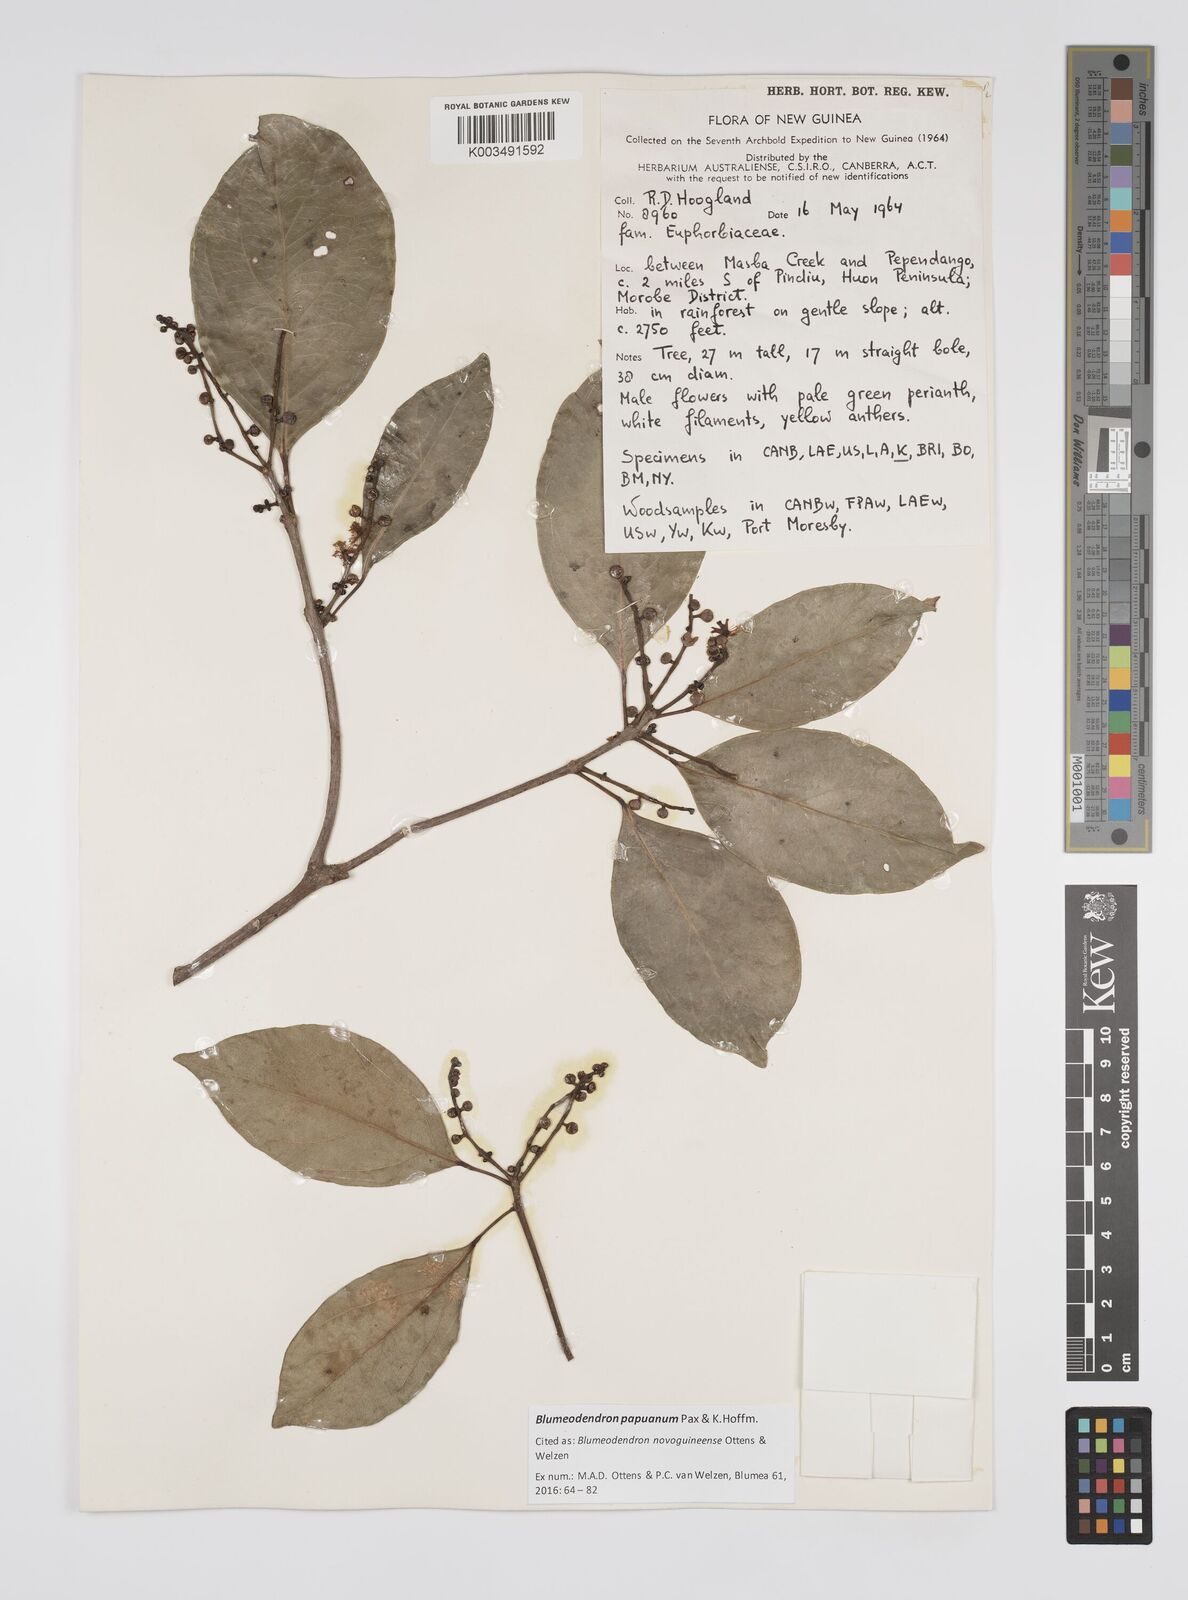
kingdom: Plantae
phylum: Tracheophyta
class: Magnoliopsida
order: Malpighiales
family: Euphorbiaceae
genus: Blumeodendron
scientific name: Blumeodendron papuanum
